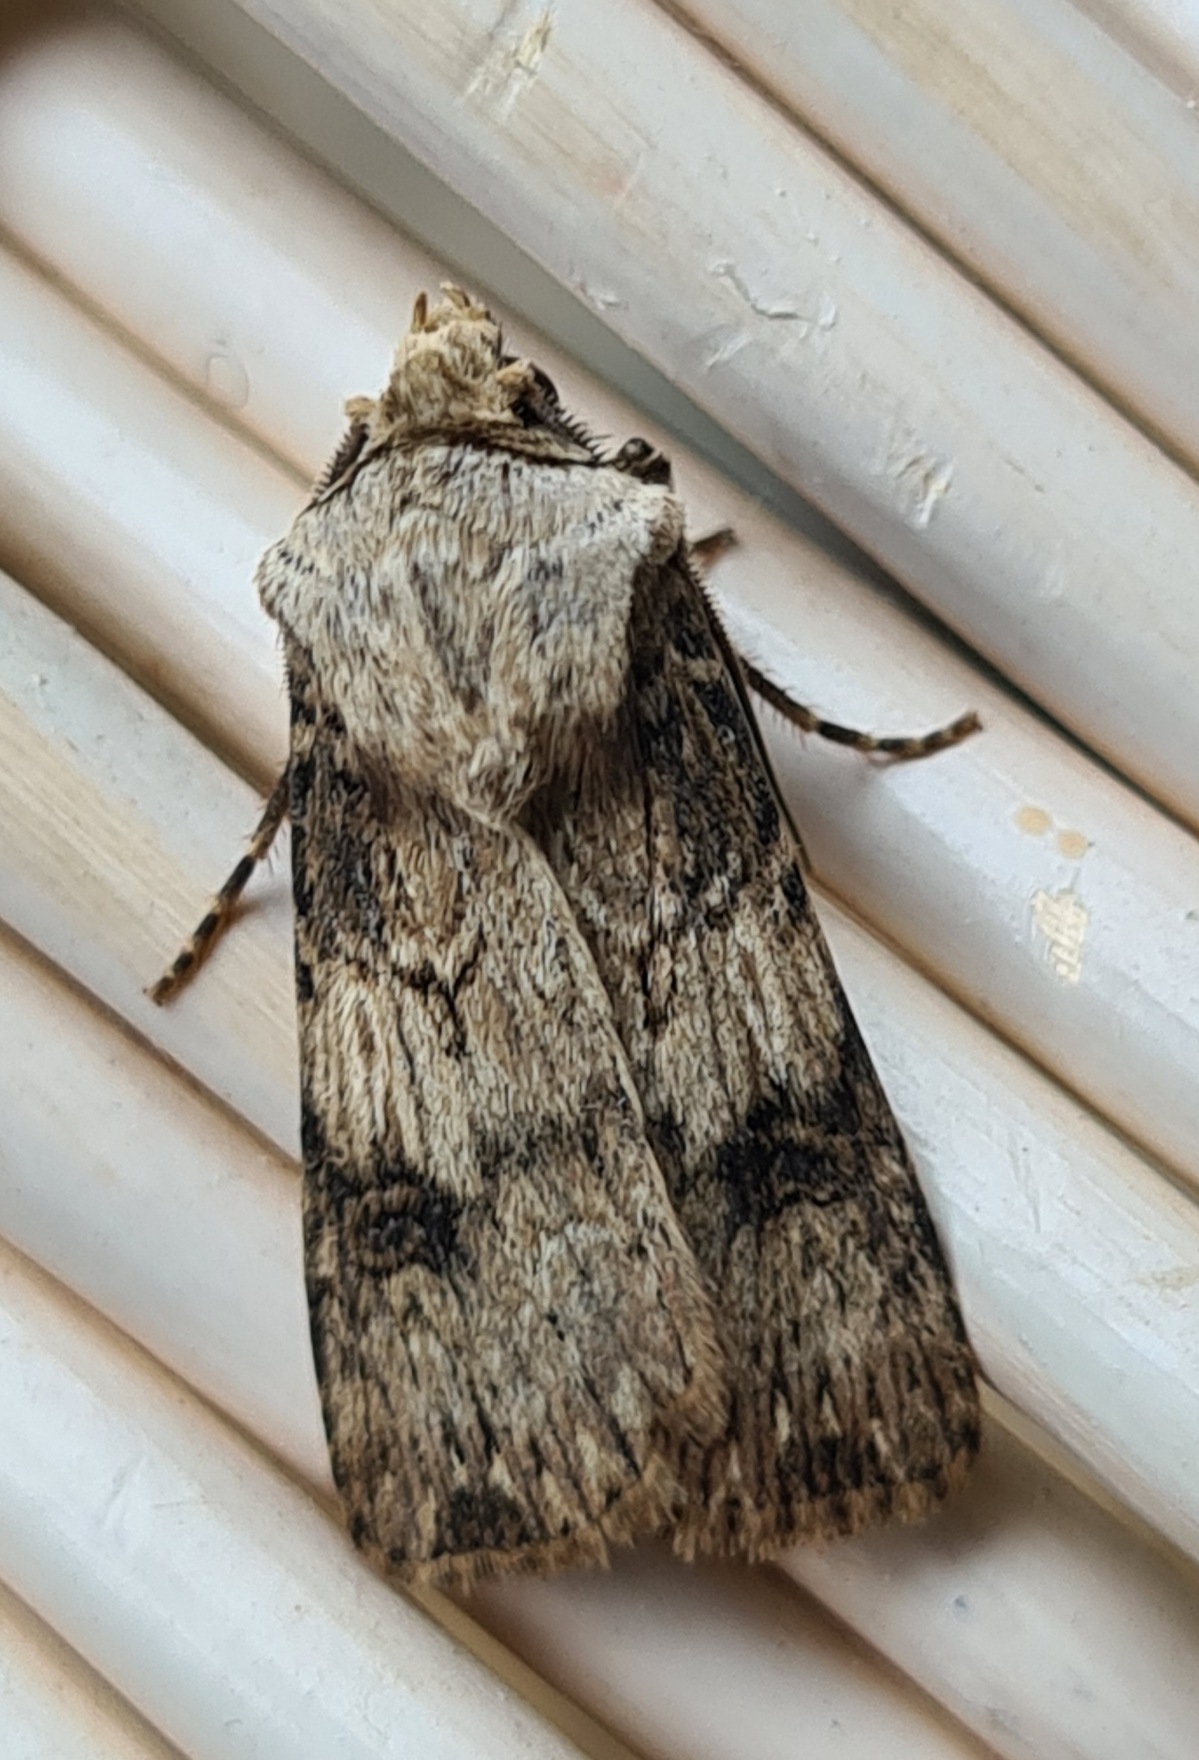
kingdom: Animalia
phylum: Arthropoda
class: Insecta
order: Lepidoptera
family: Noctuidae
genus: Agrotis
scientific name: Agrotis puta
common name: Frønnet landmand
